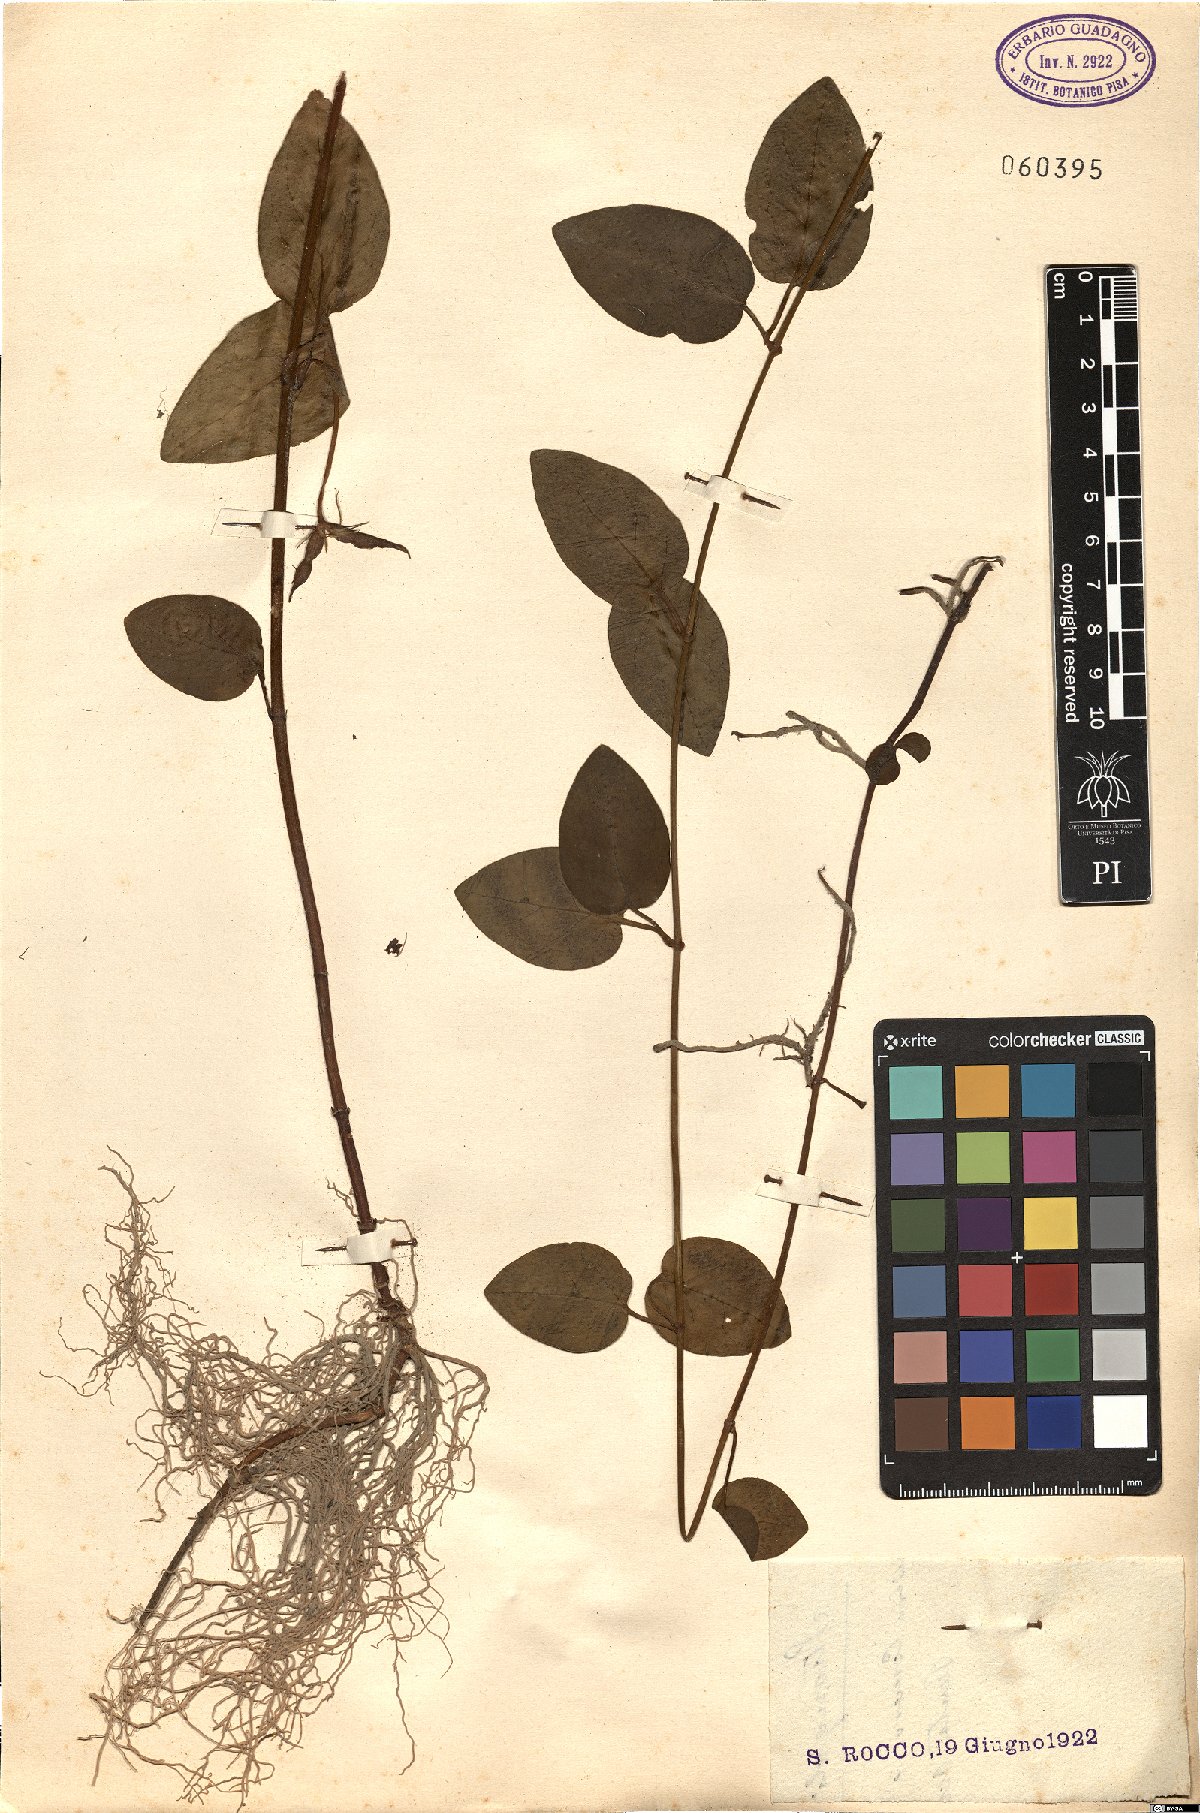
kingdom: Plantae
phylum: Tracheophyta
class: Magnoliopsida
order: Gentianales
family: Apocynaceae
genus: Vinca
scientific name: Vinca major
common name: Greater periwinkle
